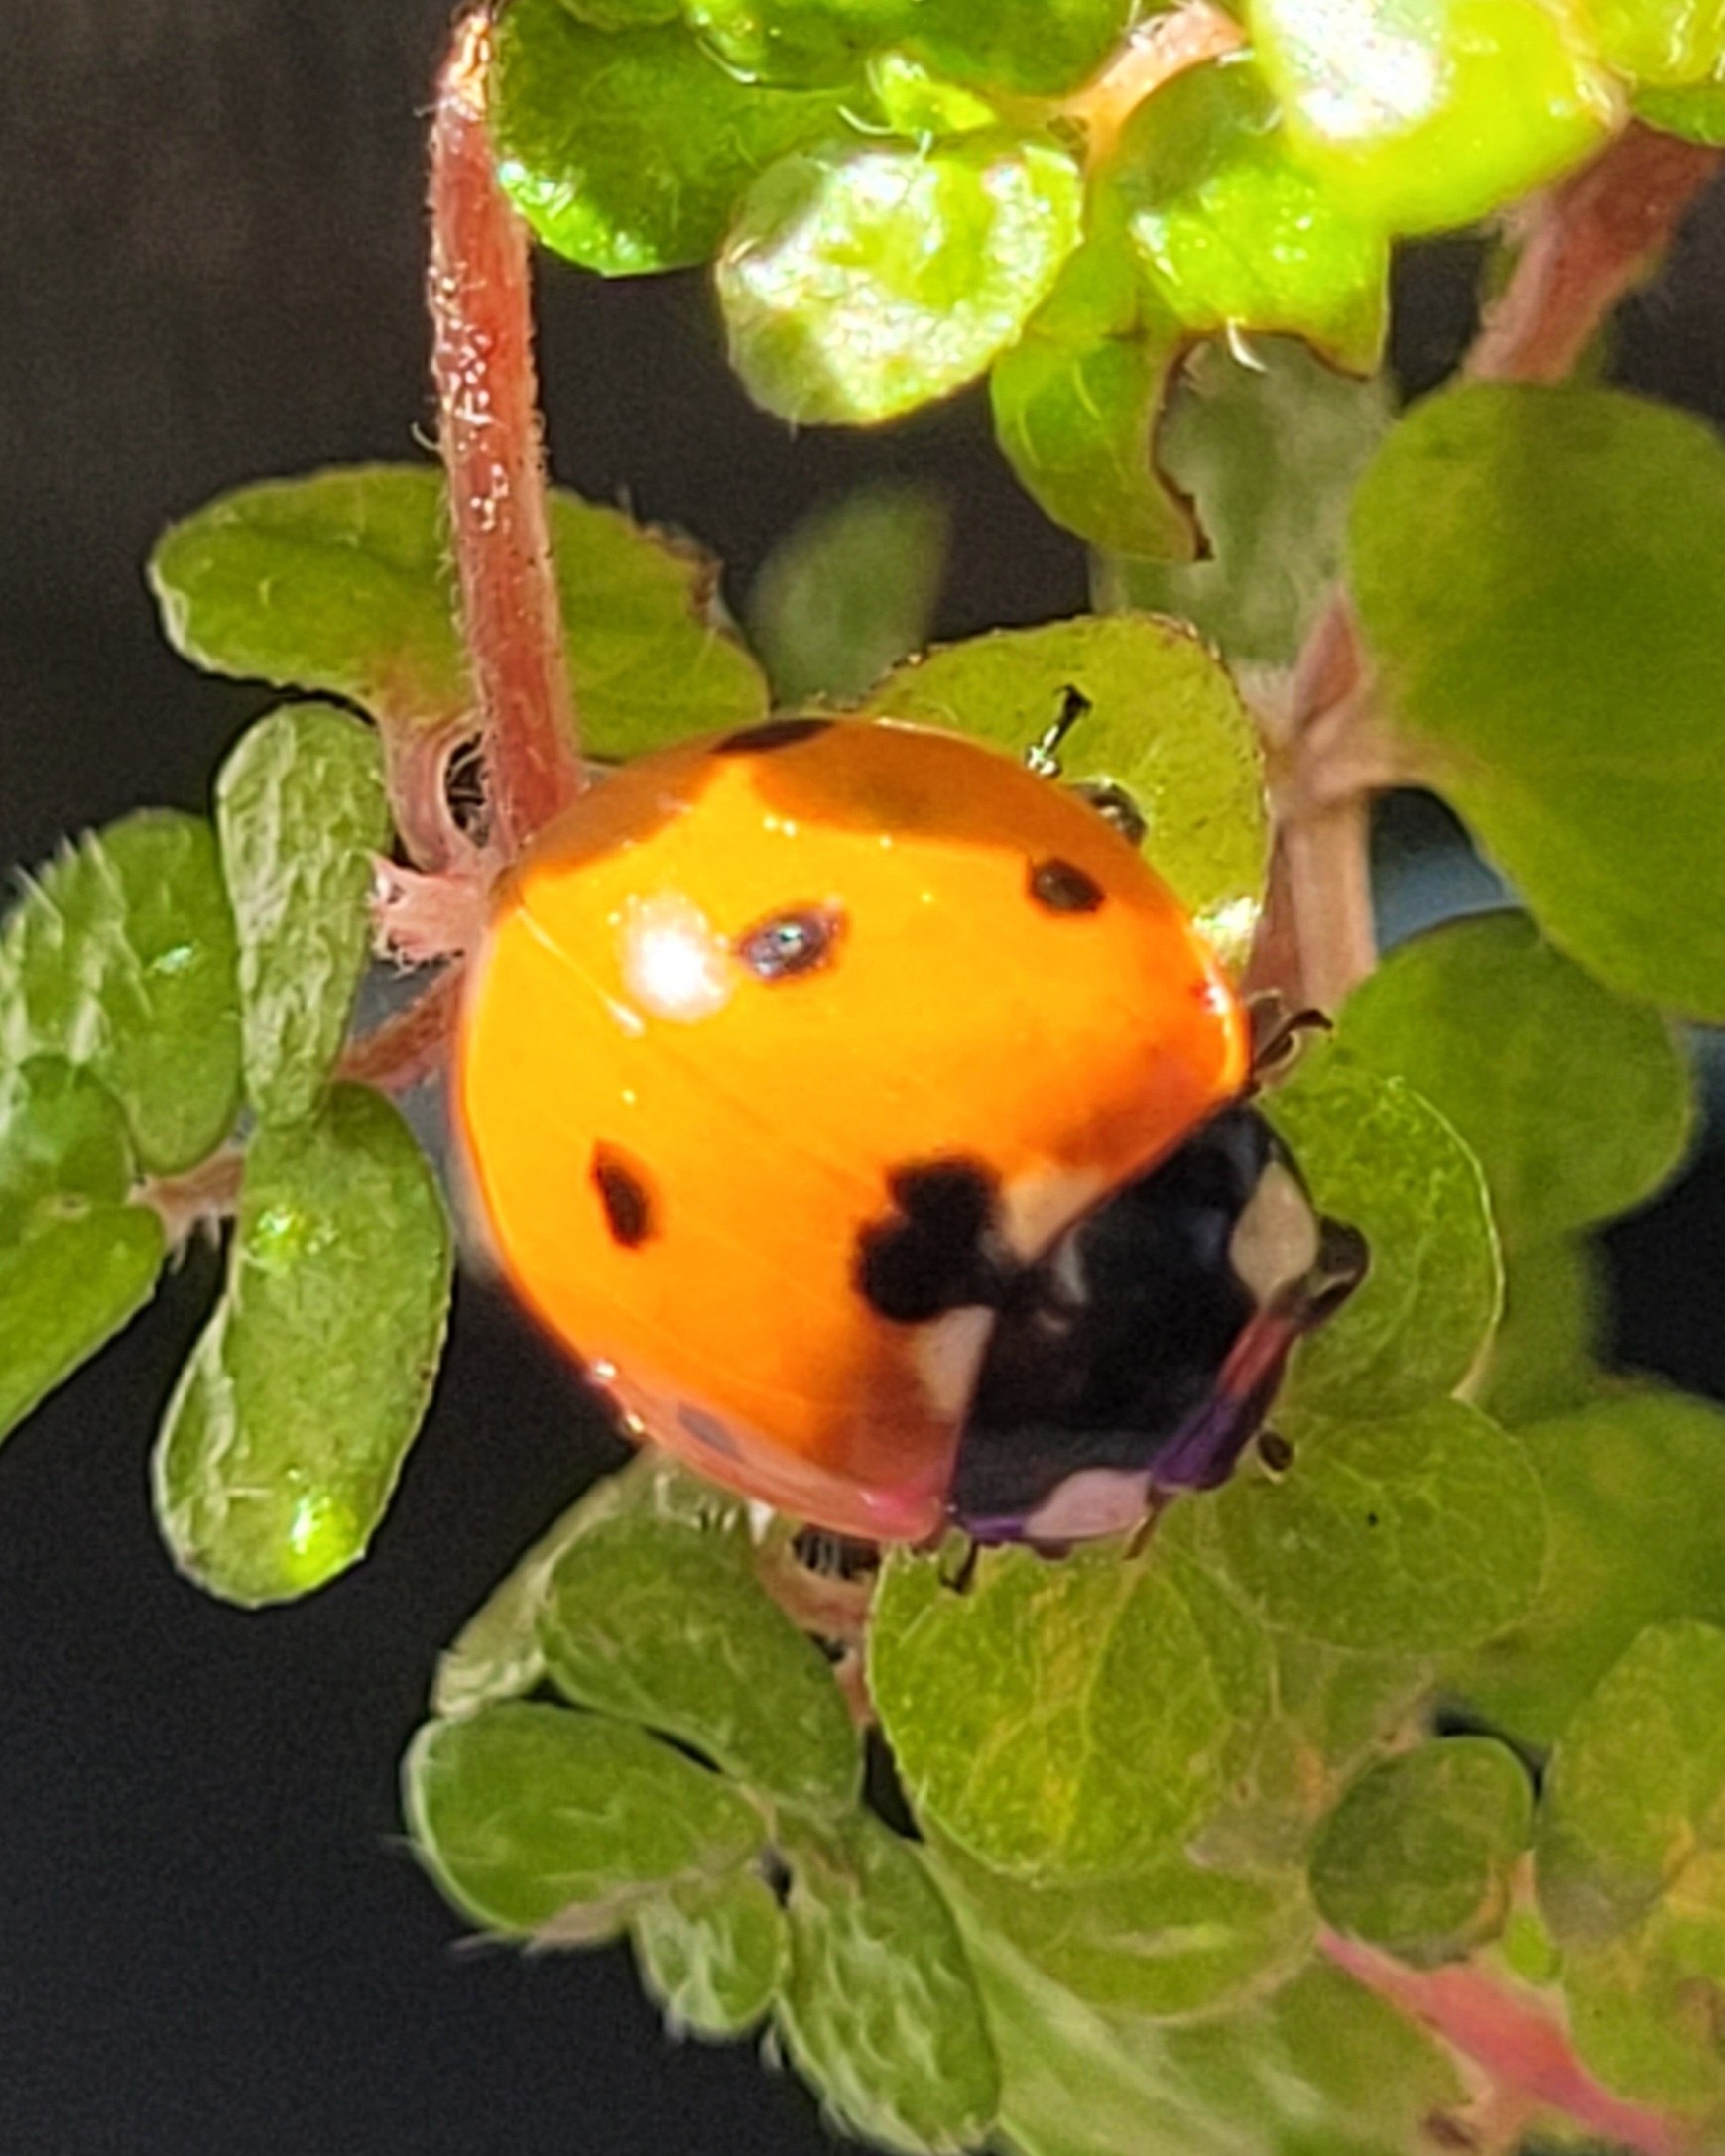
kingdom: Animalia
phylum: Arthropoda
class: Insecta
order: Coleoptera
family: Coccinellidae
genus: Coccinella
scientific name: Coccinella septempunctata
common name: Syvplettet mariehøne
